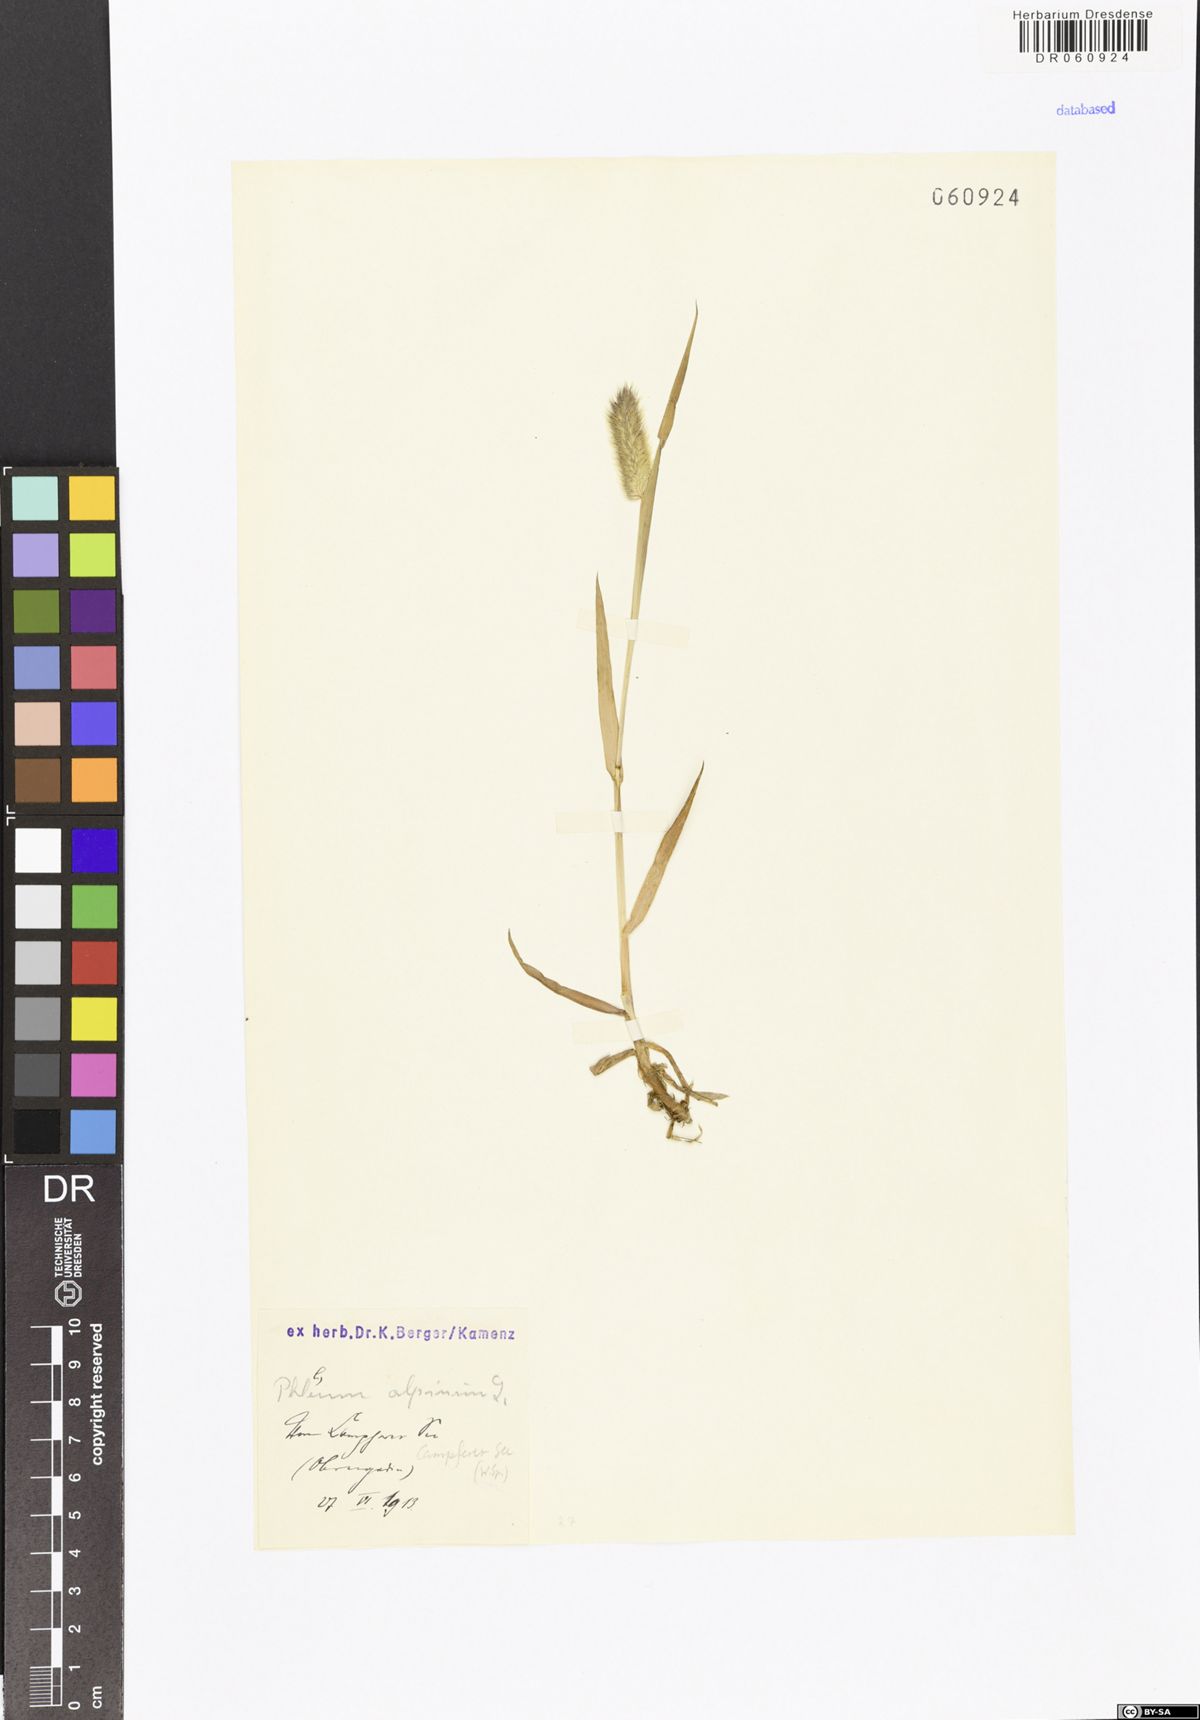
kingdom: Plantae
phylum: Tracheophyta
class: Liliopsida
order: Poales
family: Poaceae
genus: Phleum
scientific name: Phleum alpinum
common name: Alpine cat's-tail
